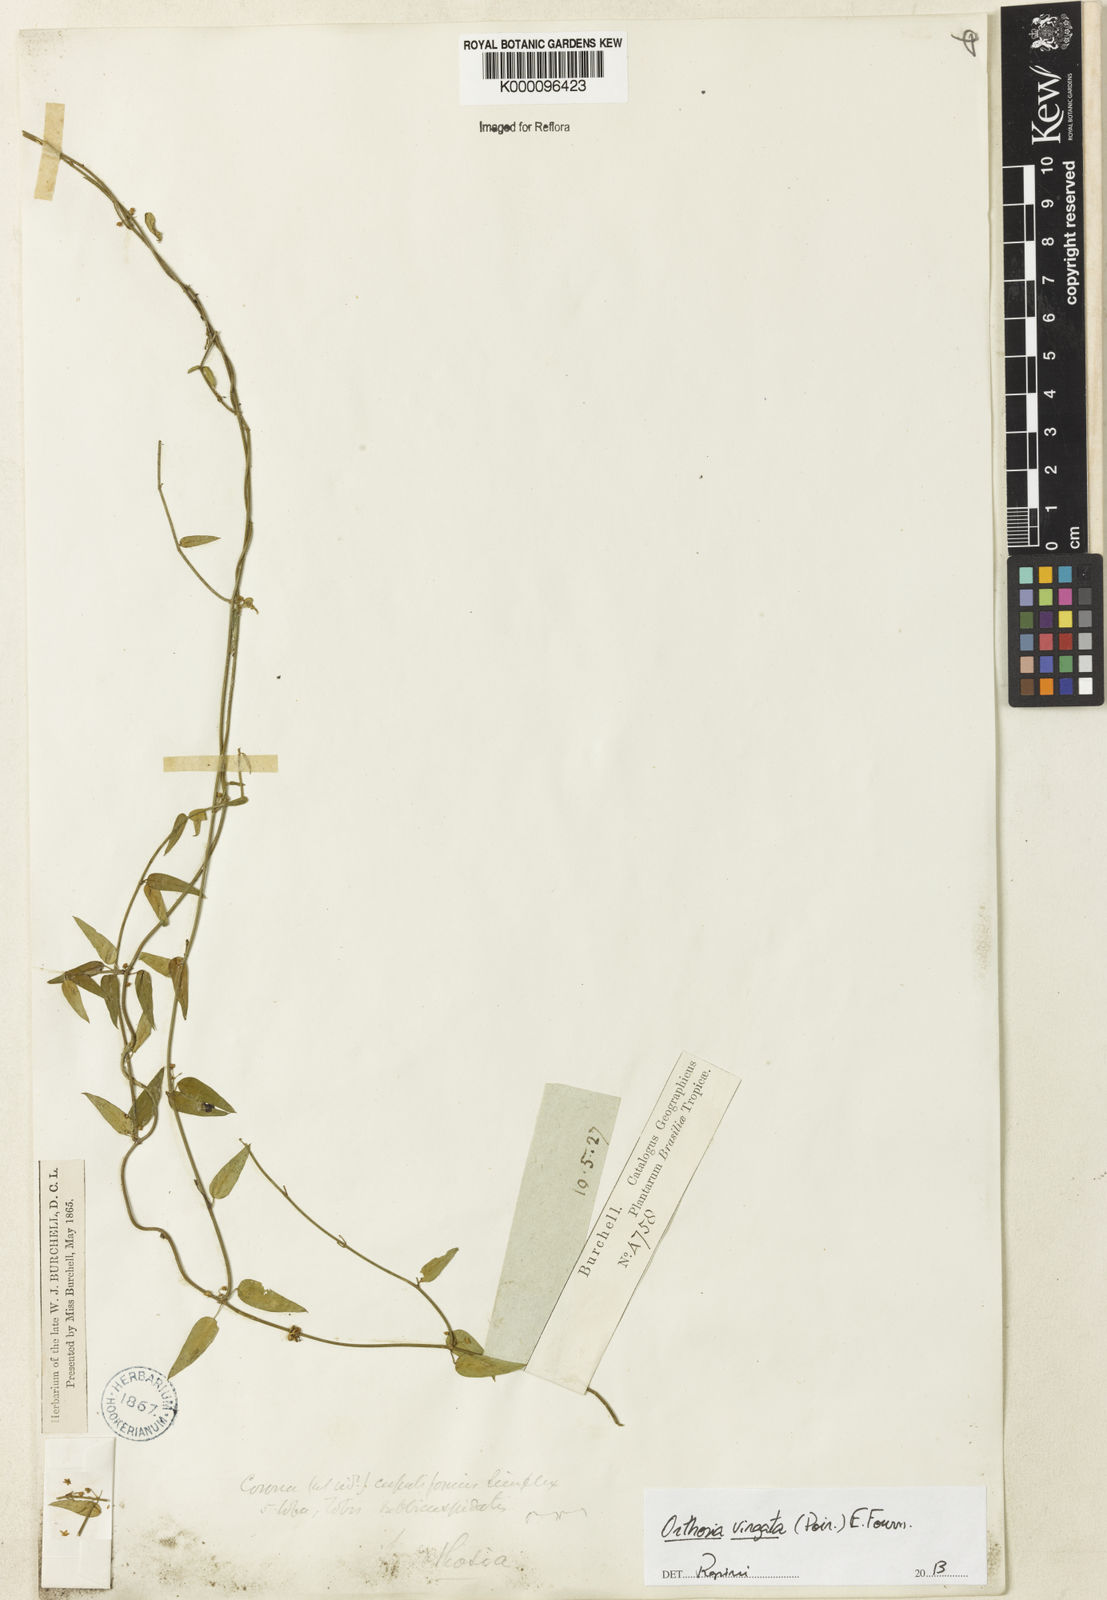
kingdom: Plantae
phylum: Tracheophyta
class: Magnoliopsida
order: Gentianales
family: Apocynaceae
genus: Orthosia
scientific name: Orthosia virgata
